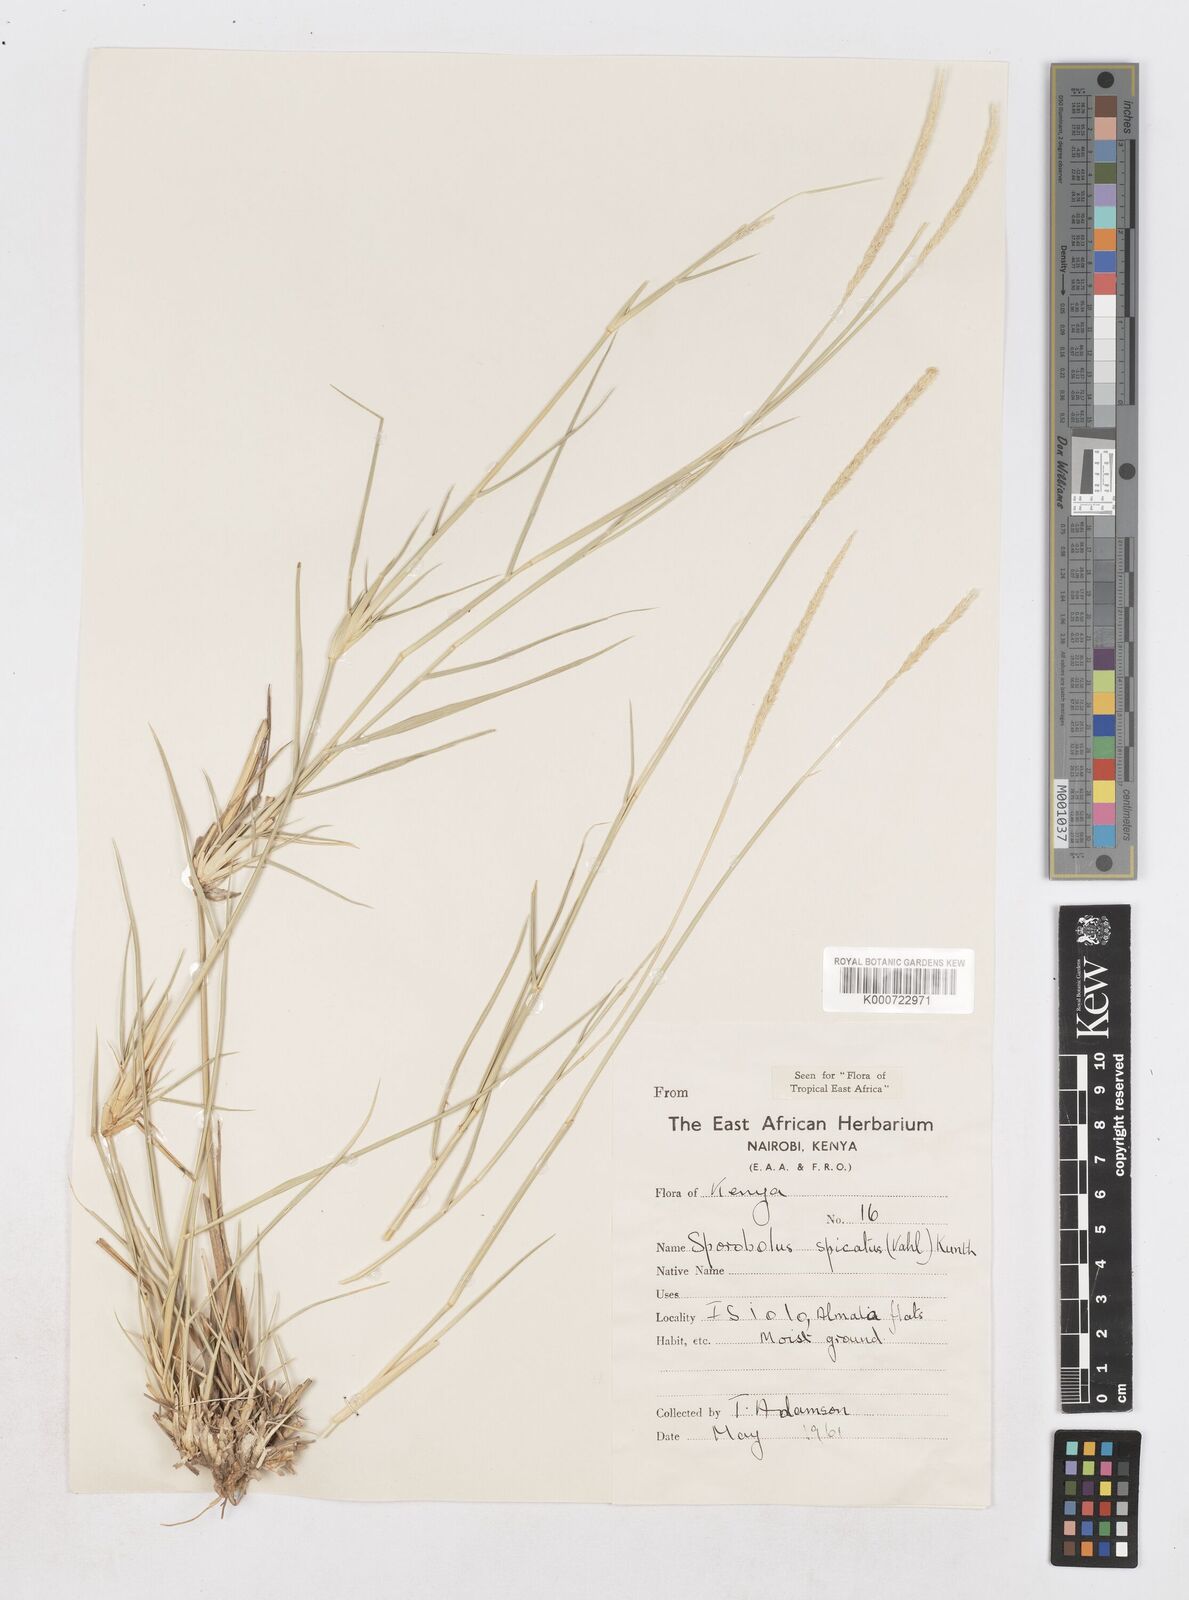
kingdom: Plantae
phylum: Tracheophyta
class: Liliopsida
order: Poales
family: Poaceae
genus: Sporobolus
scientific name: Sporobolus spicatus
